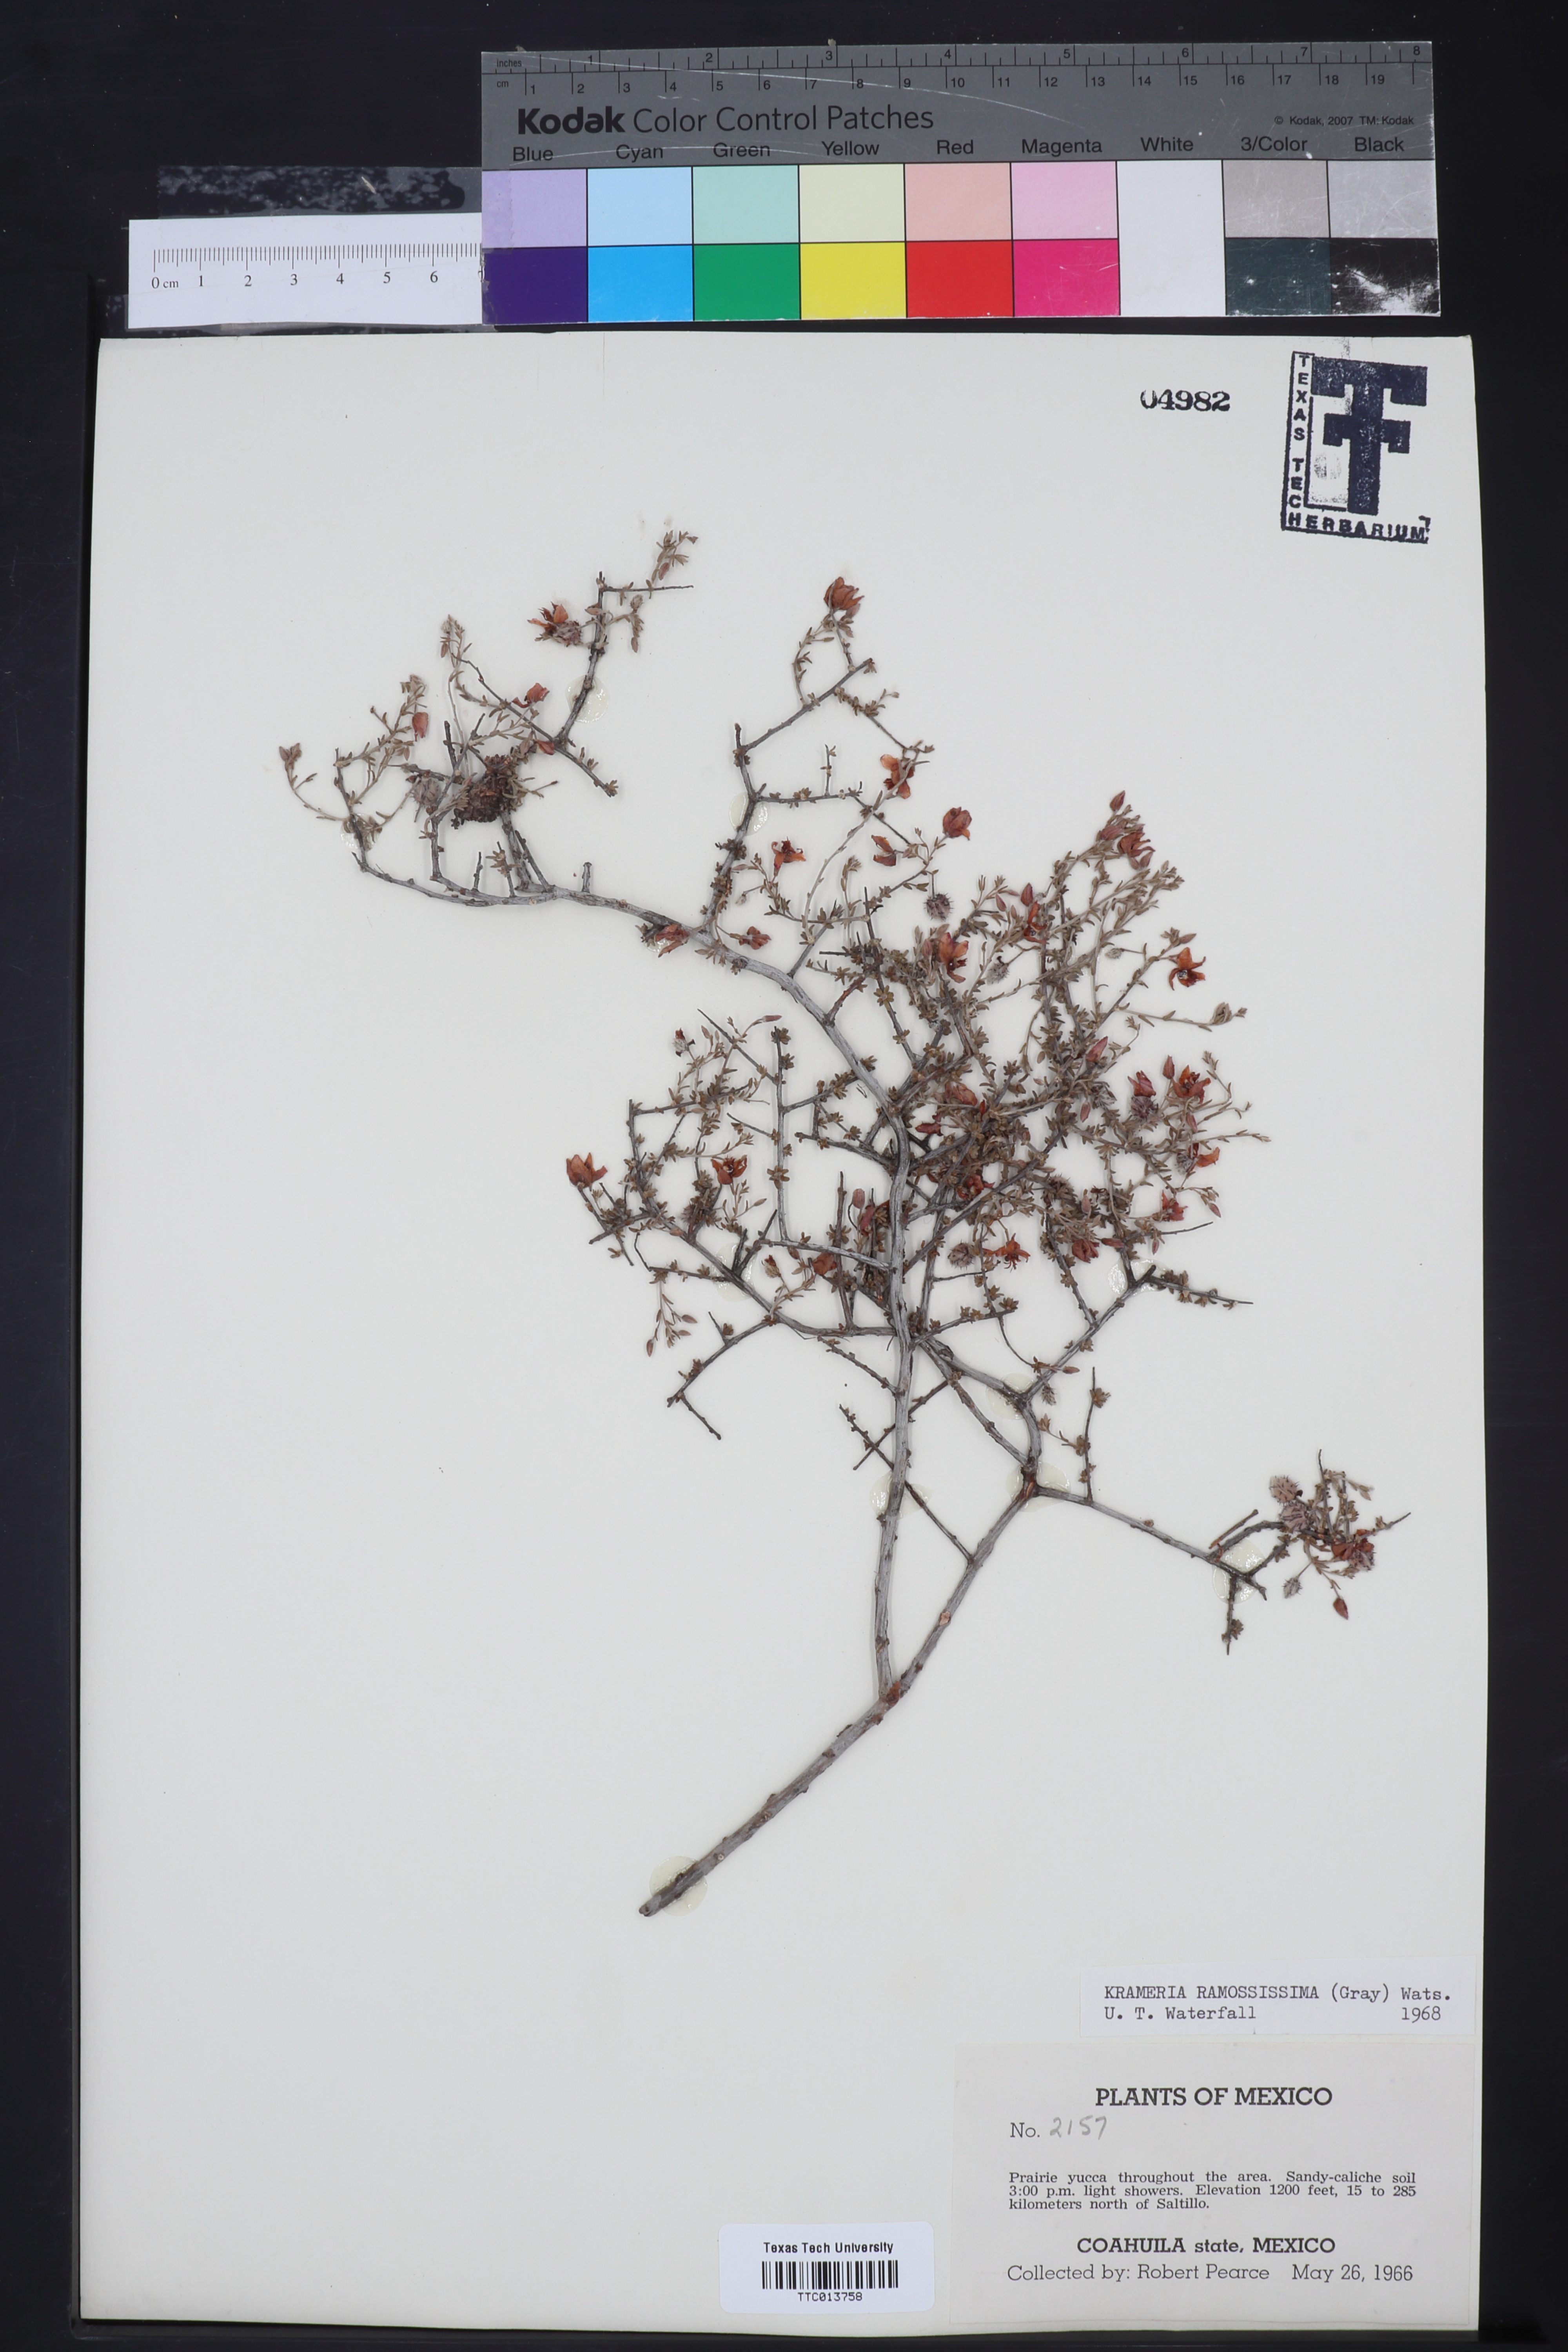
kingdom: Plantae
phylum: Tracheophyta
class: Magnoliopsida
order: Zygophyllales
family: Krameriaceae
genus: Krameria
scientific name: Krameria ramosissima
